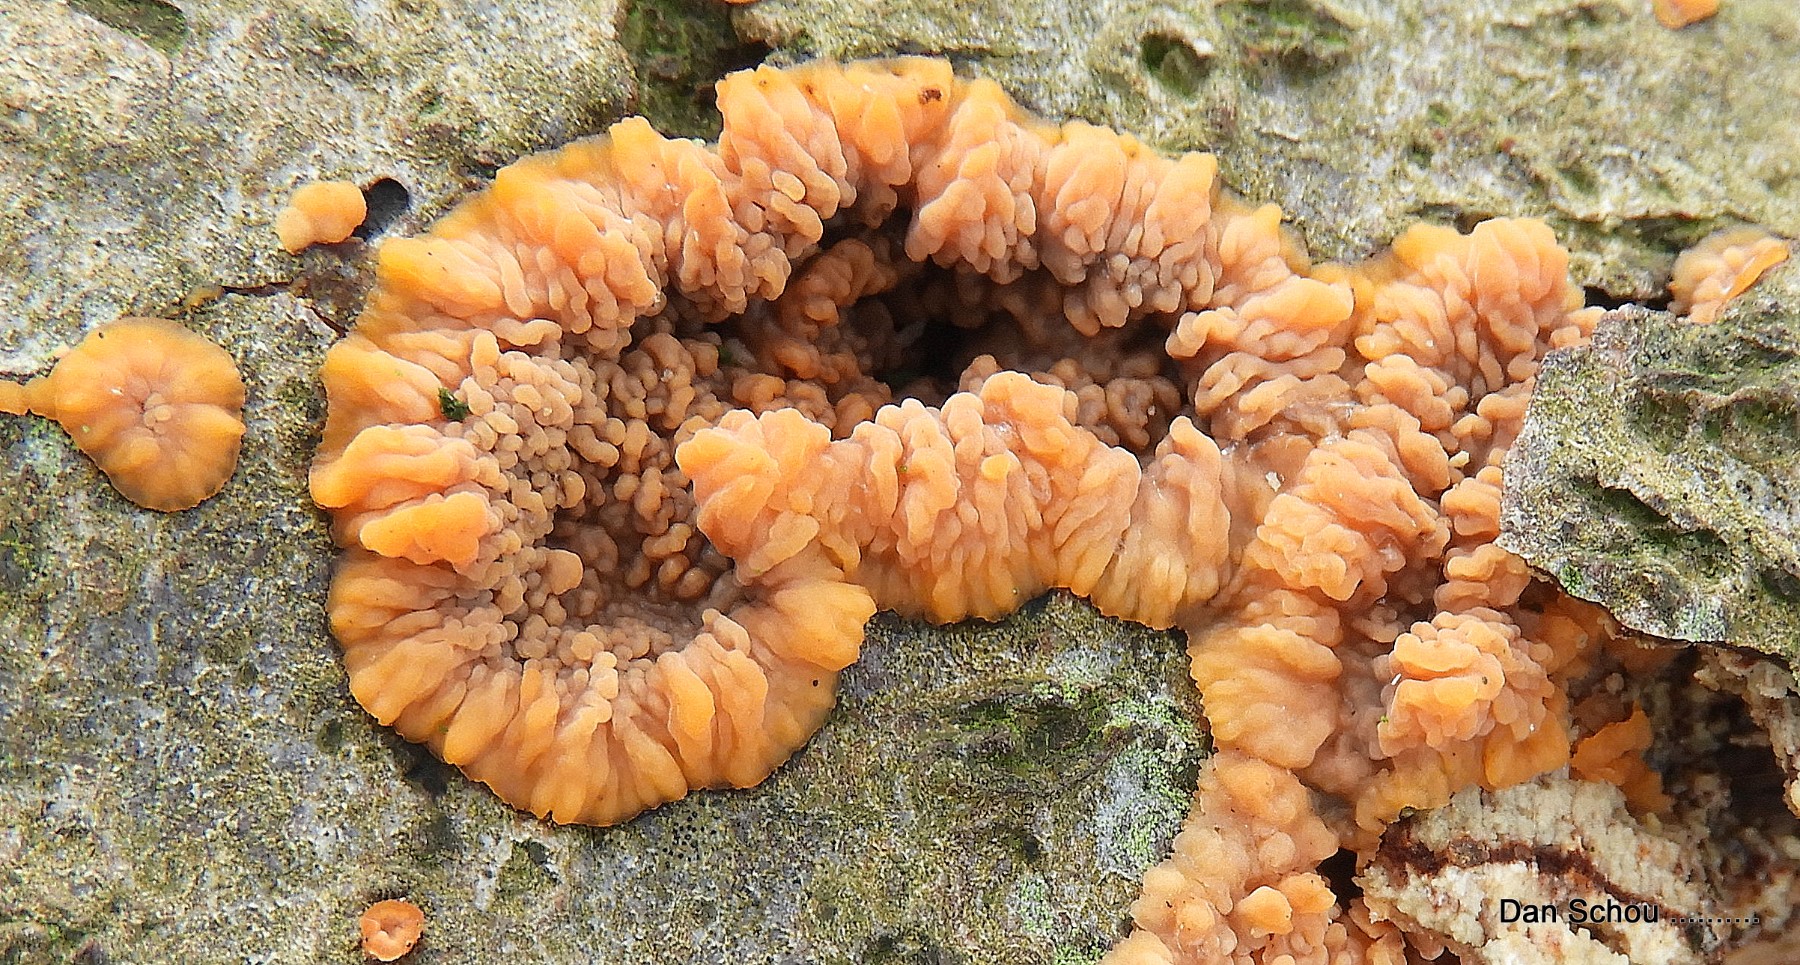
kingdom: Fungi
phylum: Basidiomycota
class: Agaricomycetes
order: Polyporales
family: Meruliaceae
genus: Phlebia
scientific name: Phlebia radiata
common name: stråle-åresvamp
